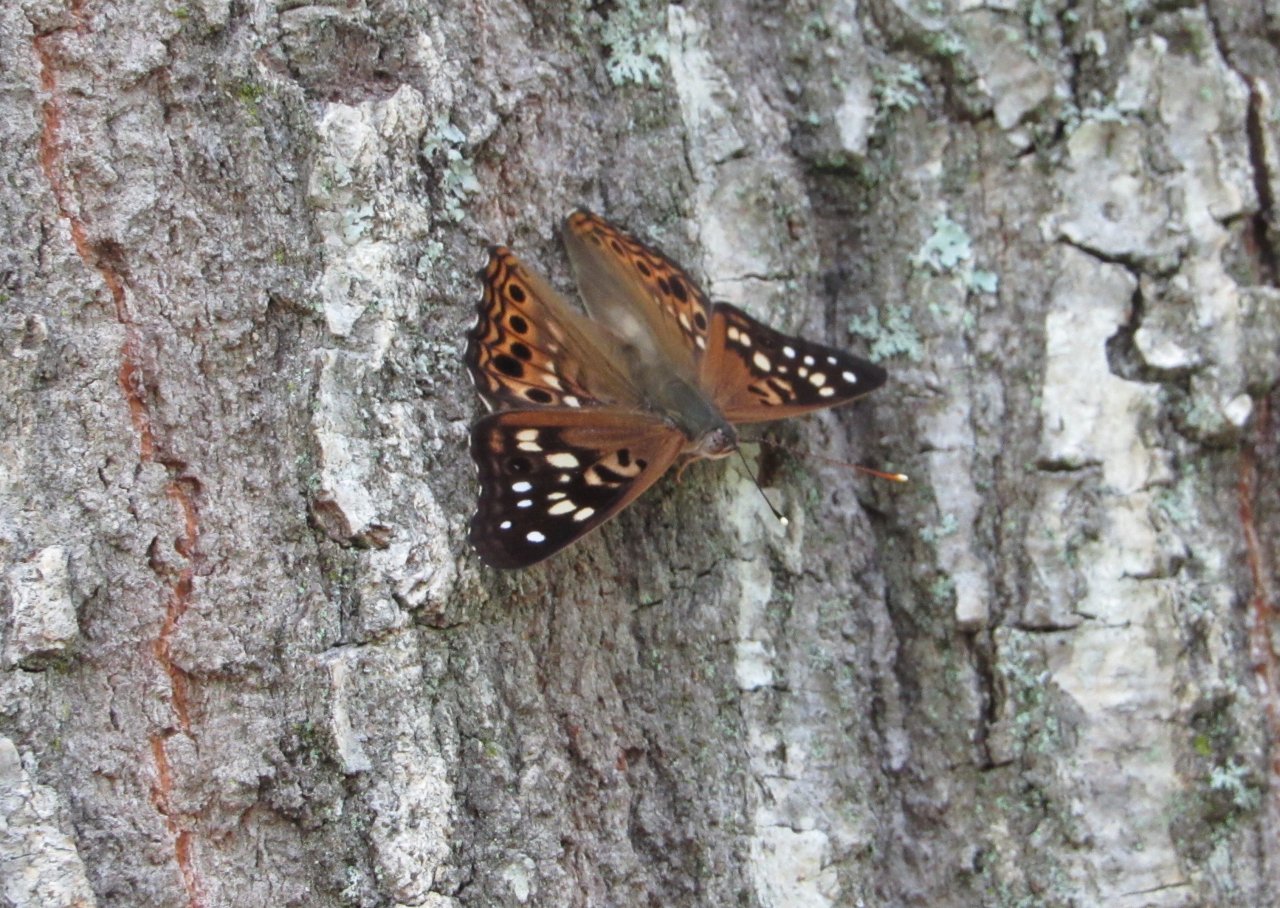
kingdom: Animalia
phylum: Arthropoda
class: Insecta
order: Lepidoptera
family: Nymphalidae
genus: Asterocampa
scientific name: Asterocampa celtis
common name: Hackberry Emperor
